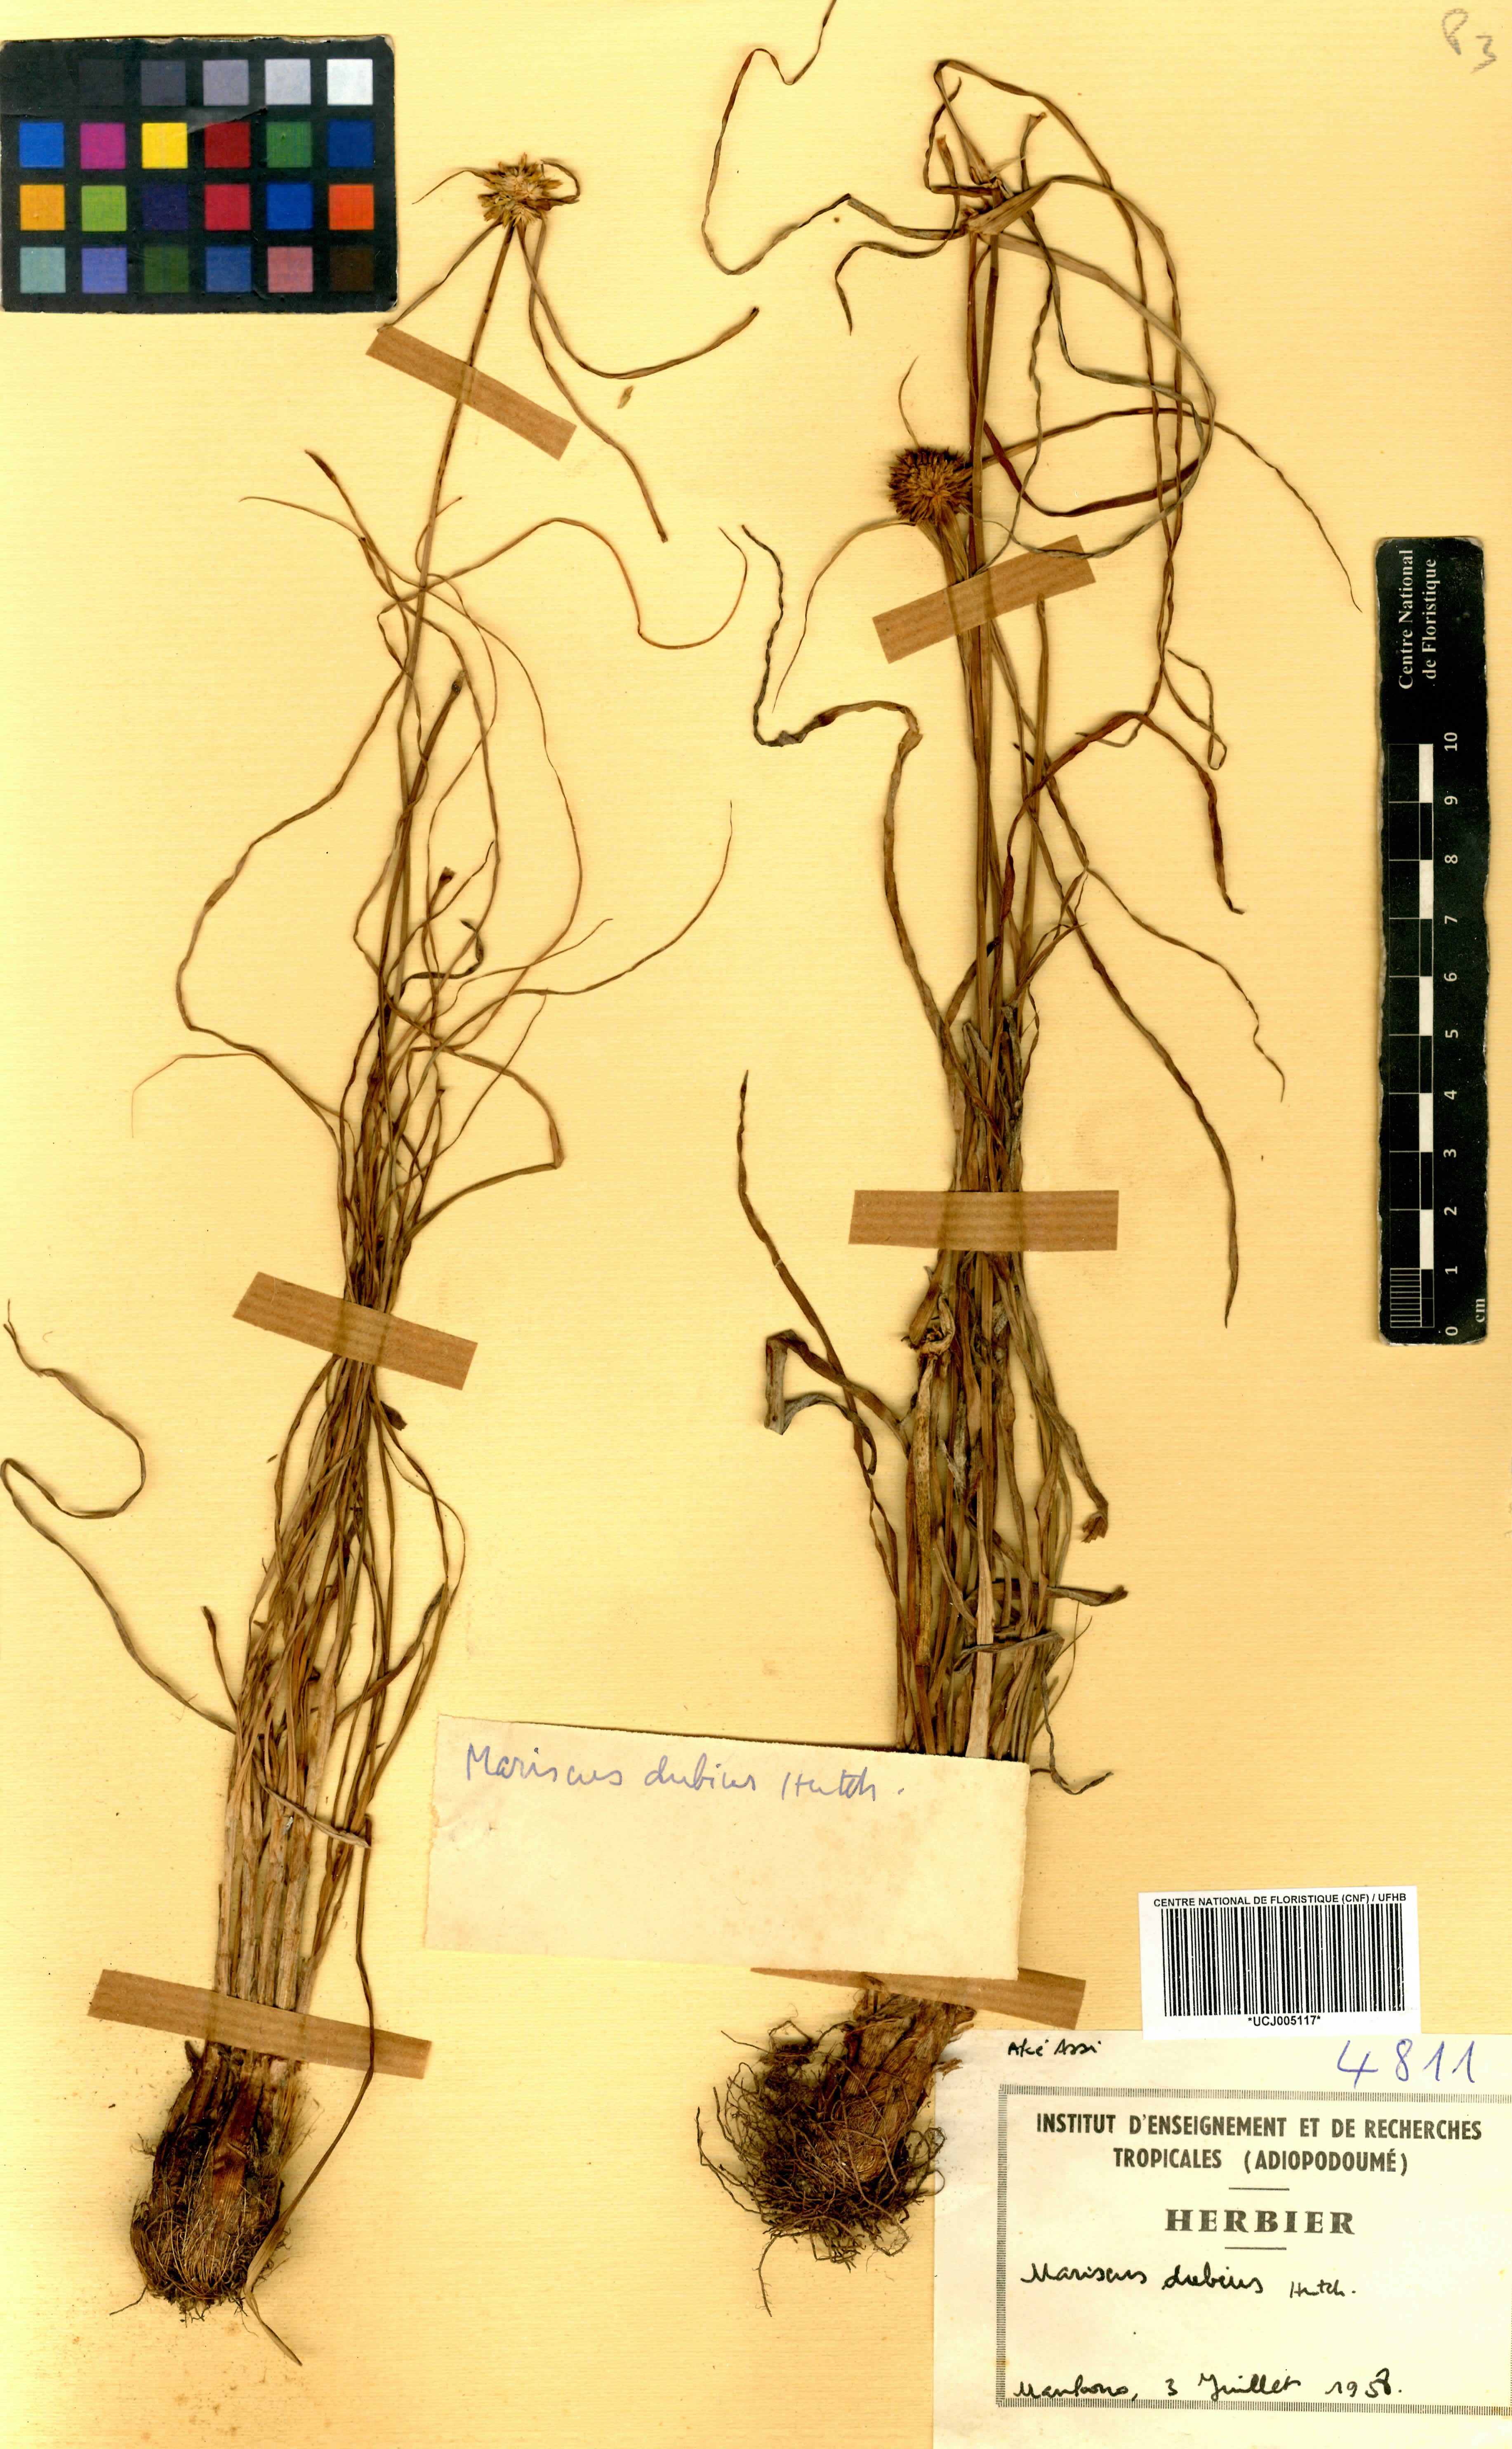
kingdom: Plantae
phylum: Tracheophyta
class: Liliopsida
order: Poales
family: Cyperaceae
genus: Cyperus
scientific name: Cyperus dubius
